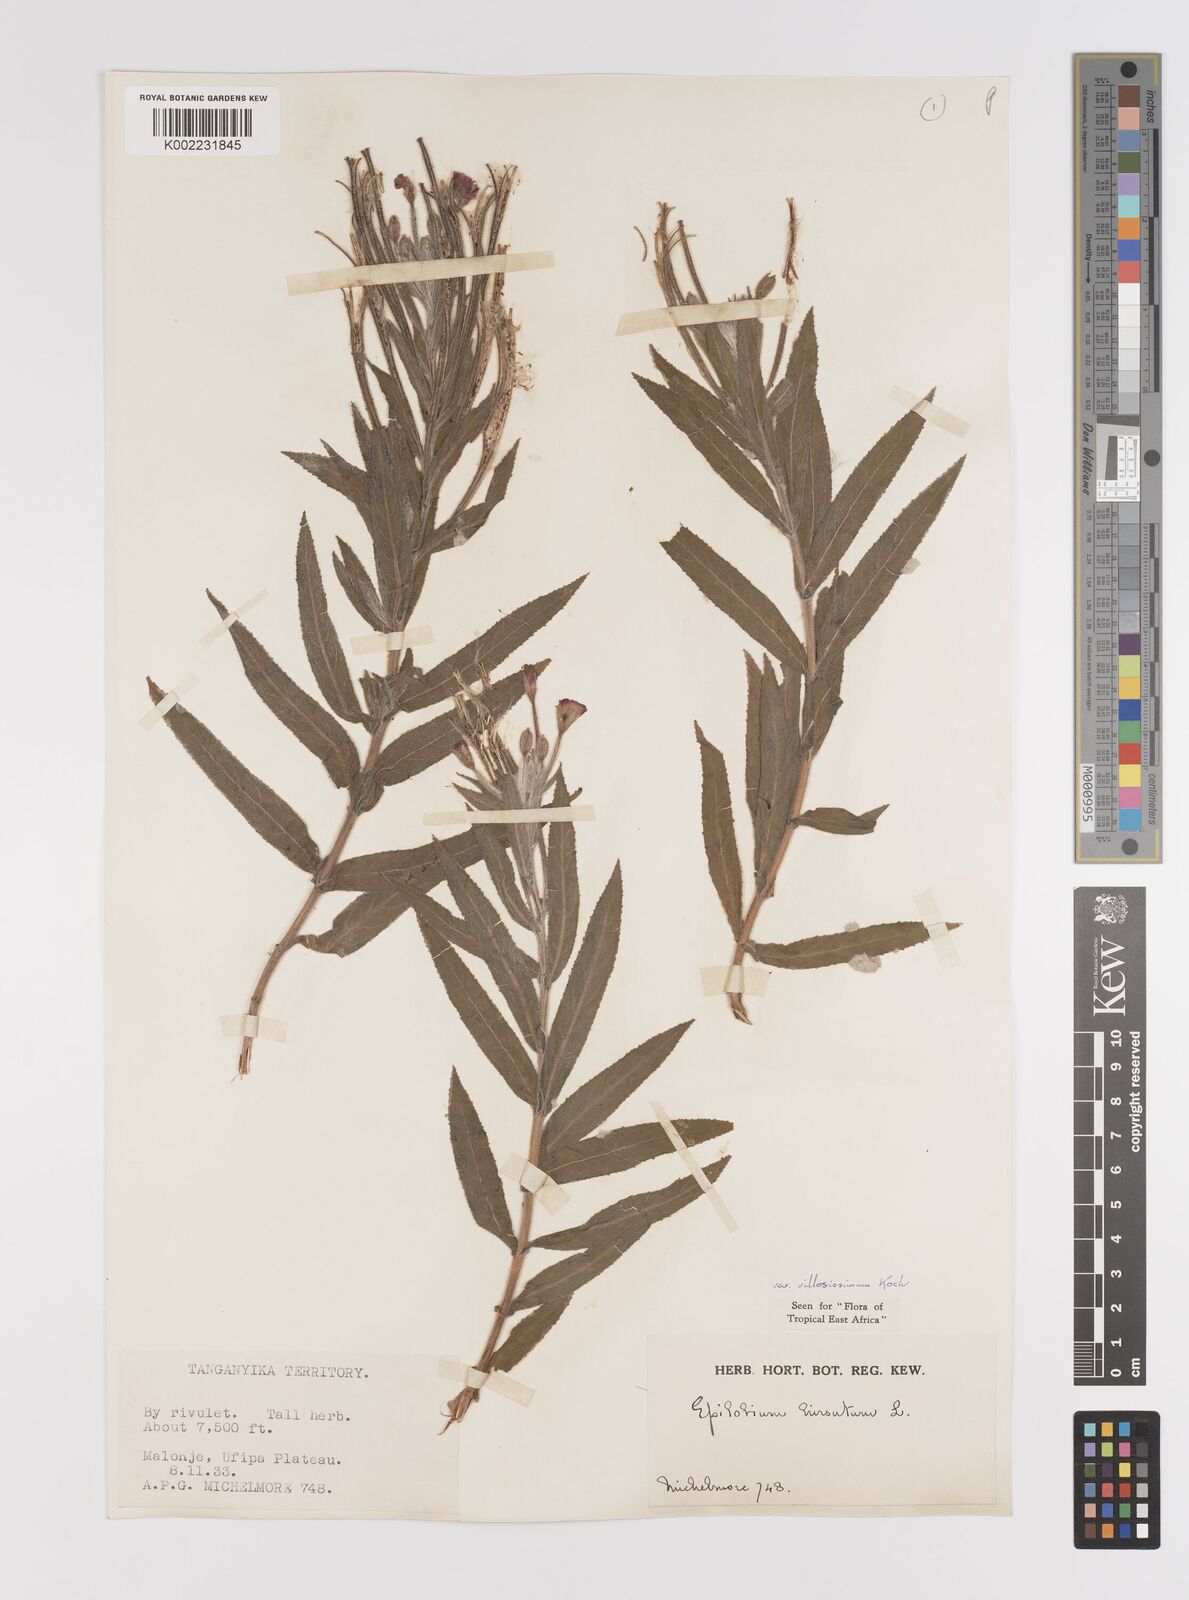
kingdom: Plantae
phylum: Tracheophyta
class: Magnoliopsida
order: Myrtales
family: Onagraceae
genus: Epilobium
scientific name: Epilobium hirsutum
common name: Great willowherb
